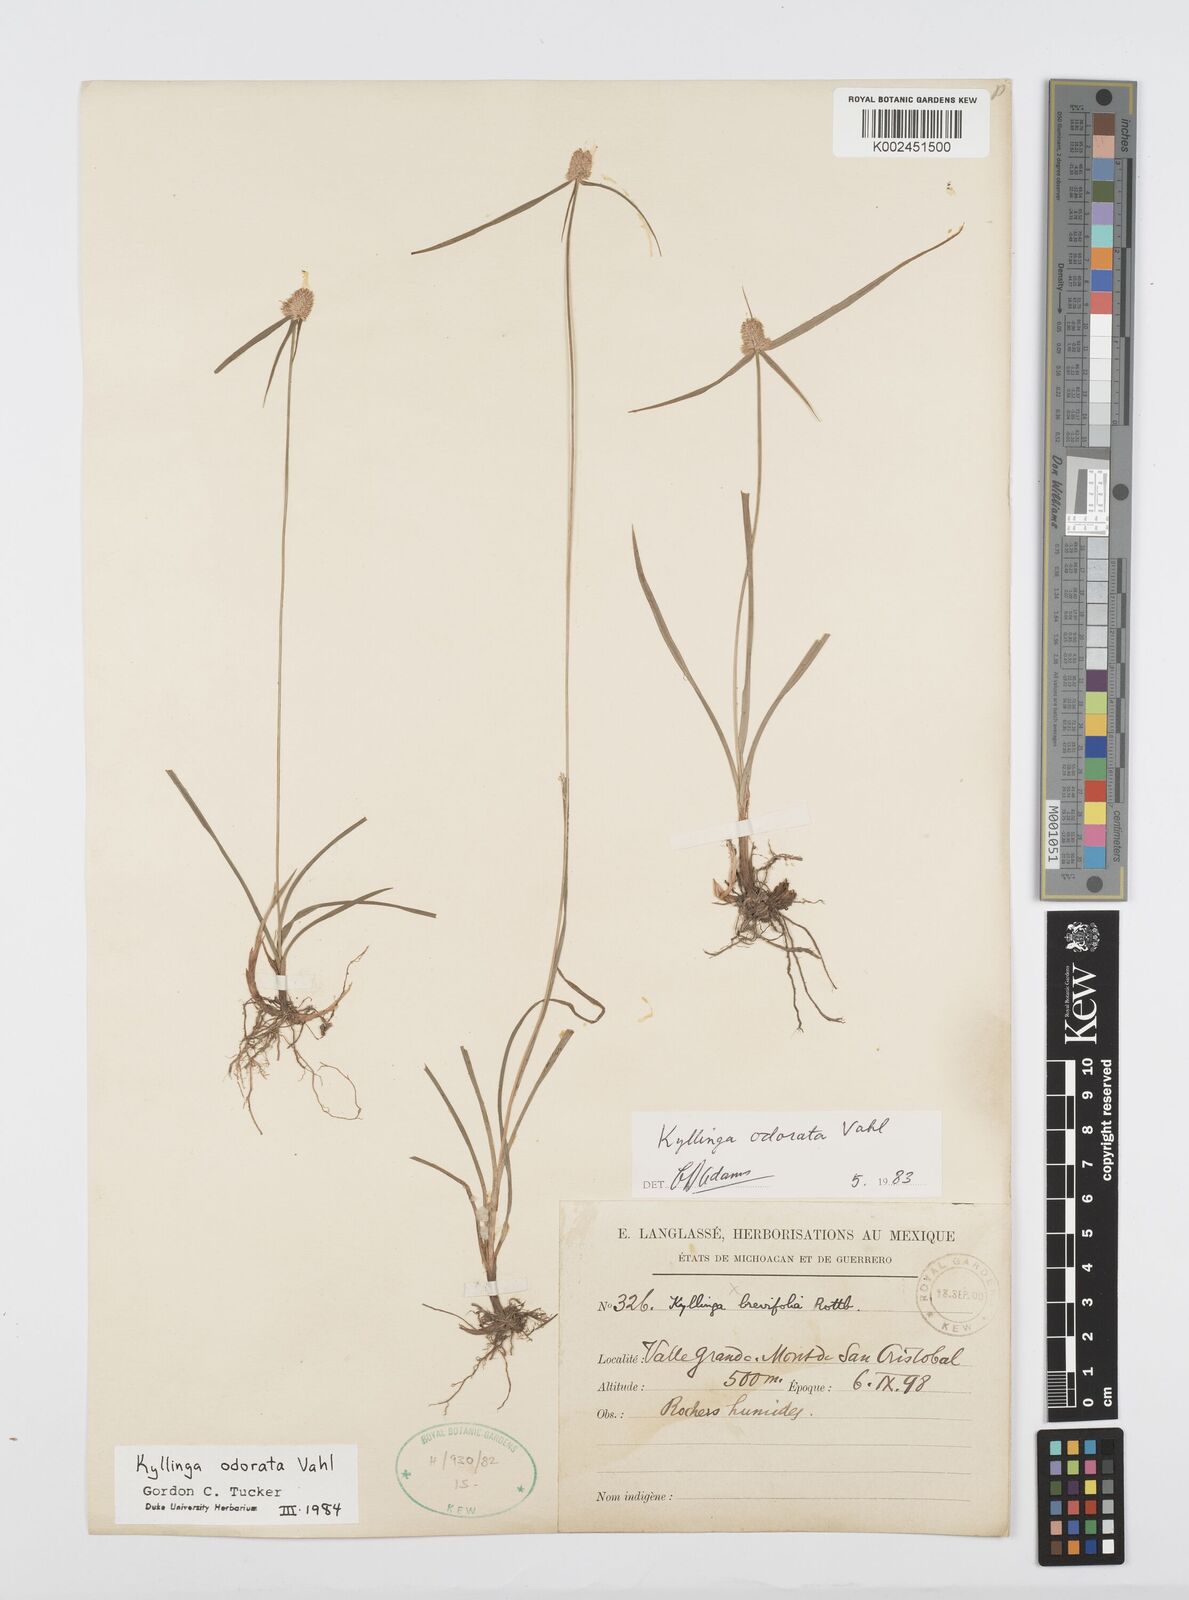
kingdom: Plantae
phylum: Tracheophyta
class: Liliopsida
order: Poales
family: Cyperaceae
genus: Cyperus
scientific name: Cyperus
